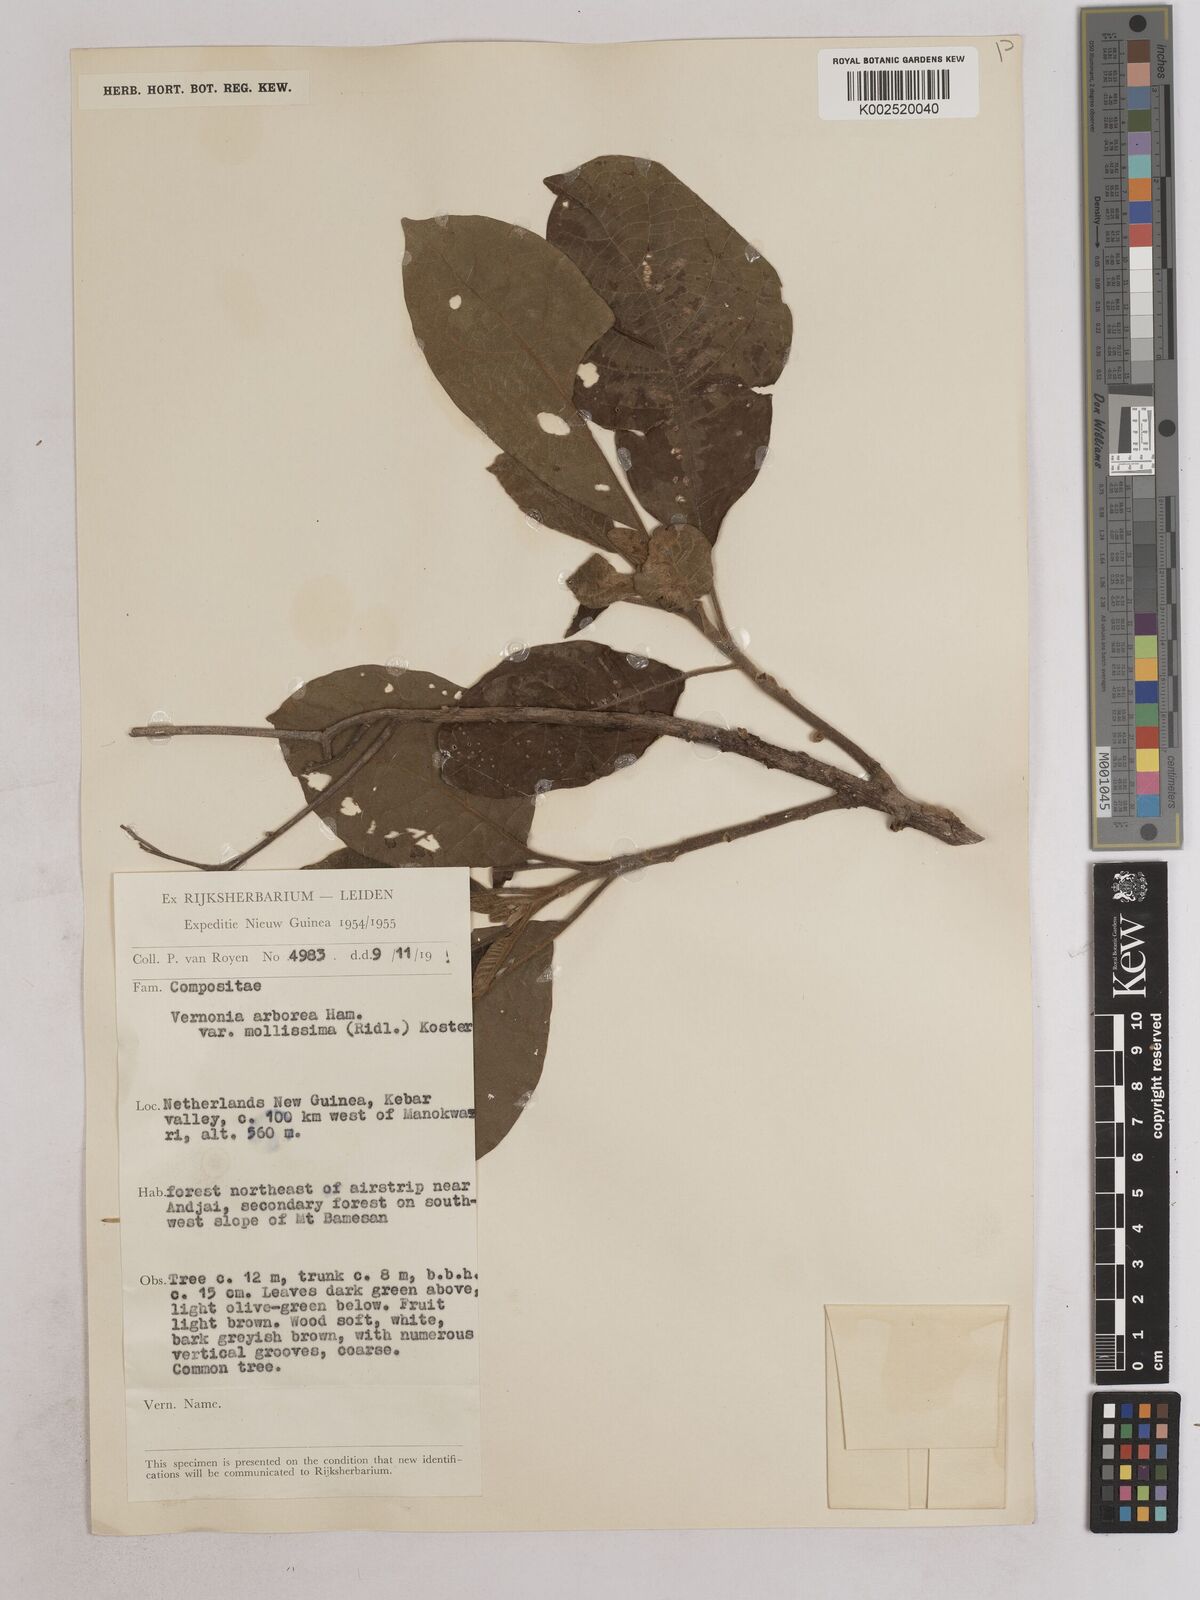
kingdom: Plantae
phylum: Tracheophyta
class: Magnoliopsida
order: Asterales
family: Asteraceae
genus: Strobocalyx
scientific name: Strobocalyx arborea
